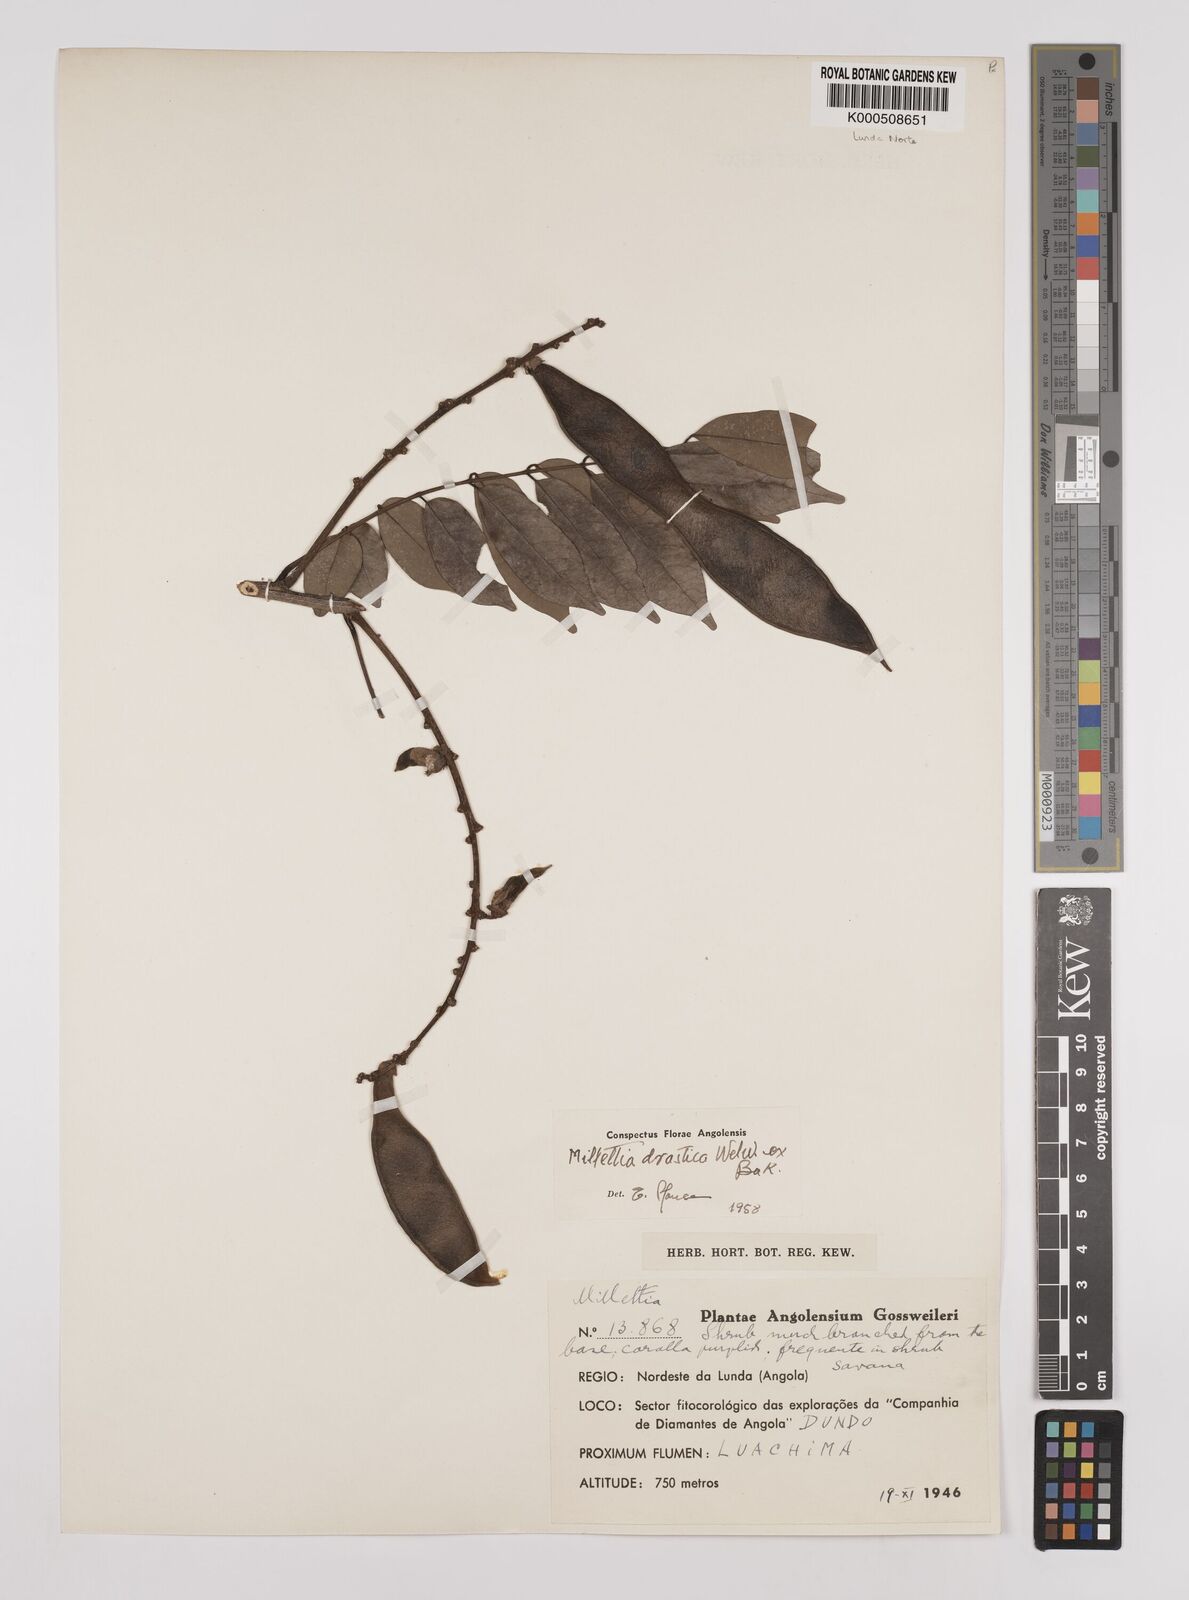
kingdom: Plantae
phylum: Tracheophyta
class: Magnoliopsida
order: Fabales
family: Fabaceae
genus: Millettia
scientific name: Millettia drastica
